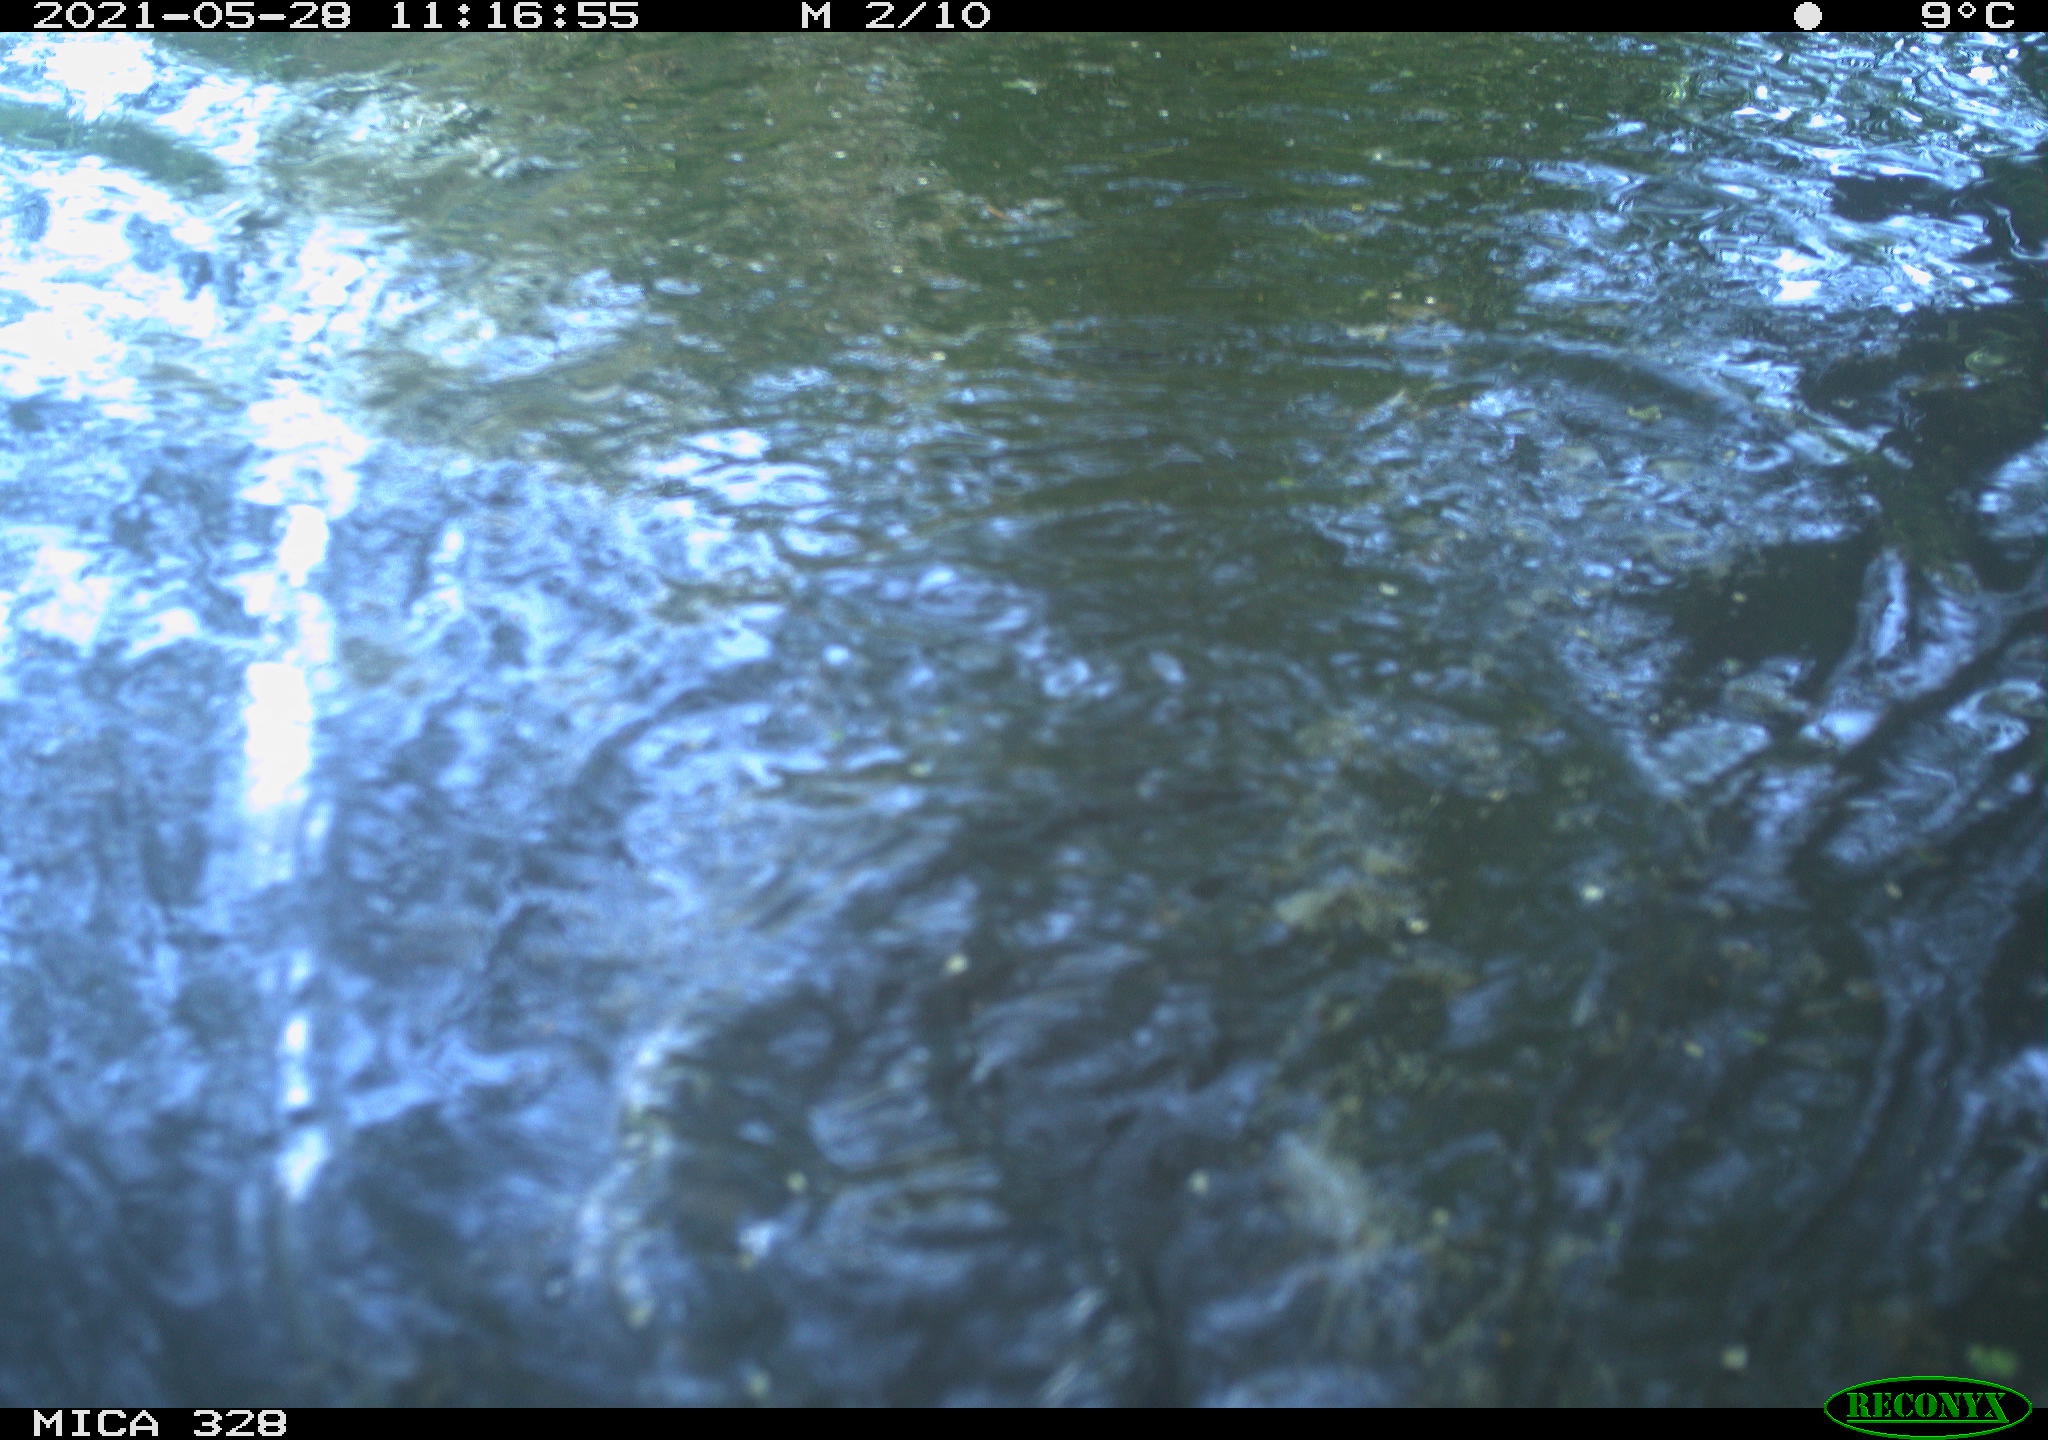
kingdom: Animalia
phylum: Chordata
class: Mammalia
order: Rodentia
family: Cricetidae
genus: Ondatra
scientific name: Ondatra zibethicus
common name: Muskrat
